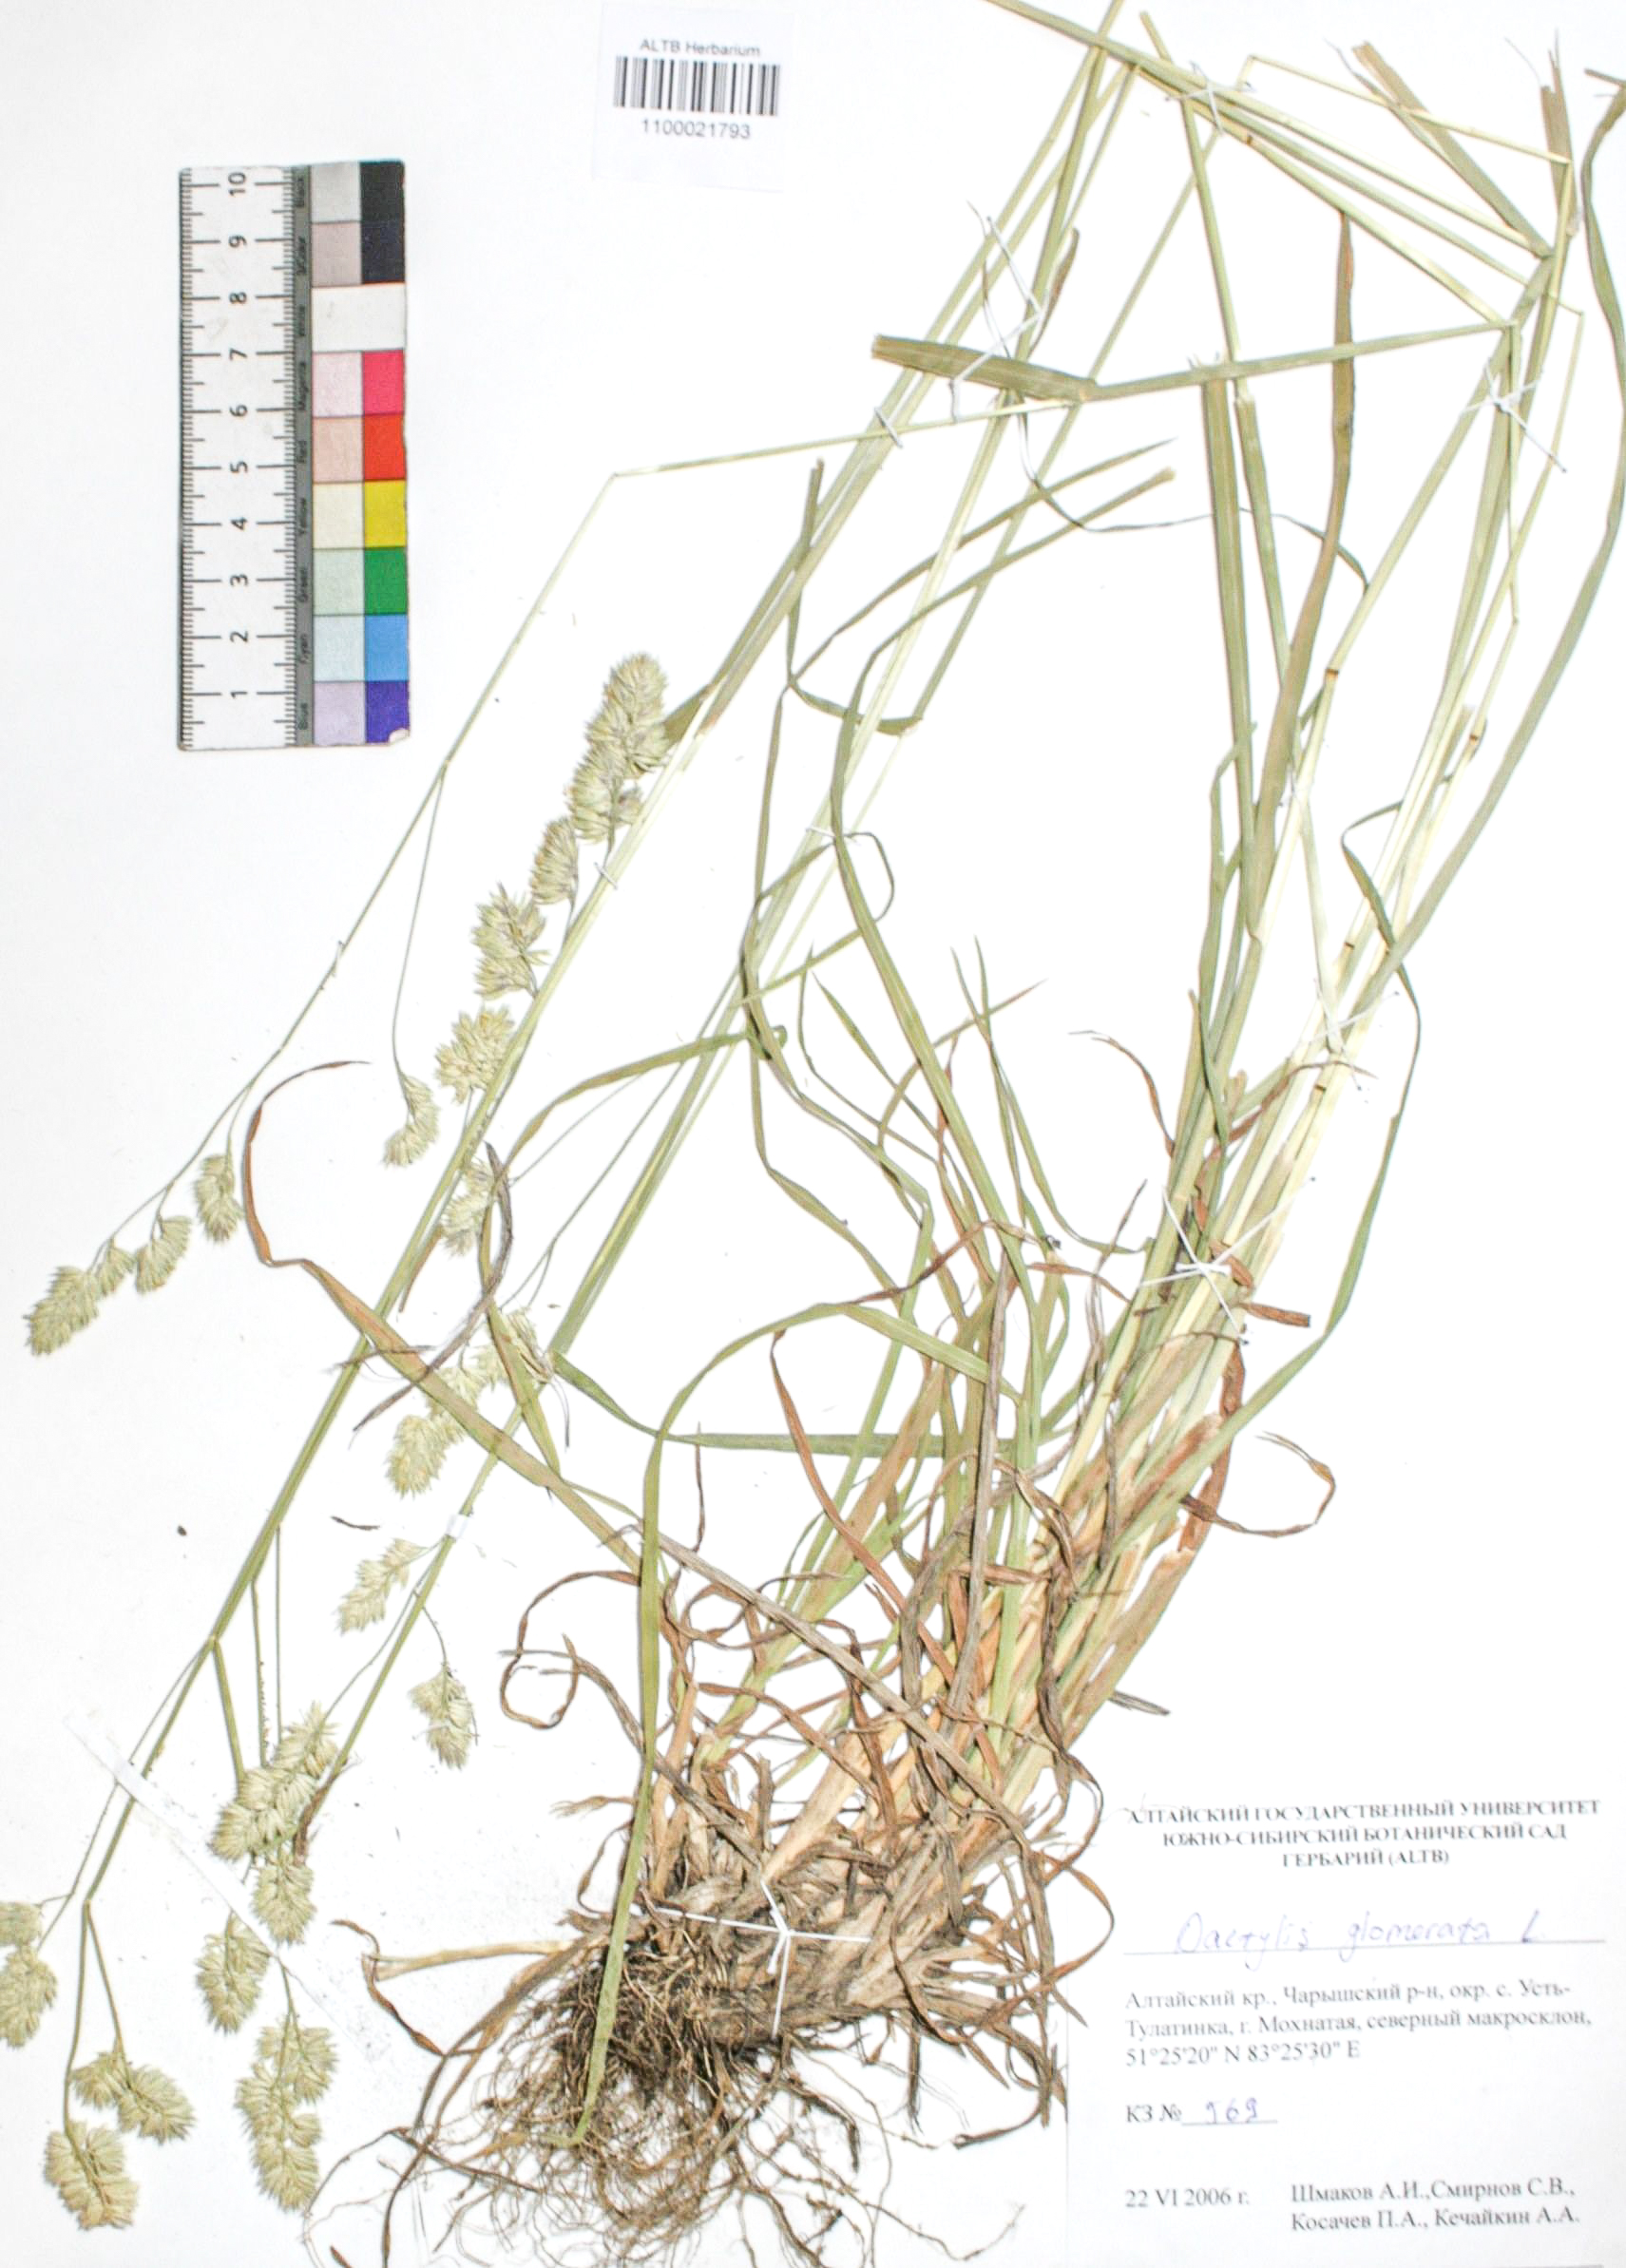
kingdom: Plantae
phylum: Tracheophyta
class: Liliopsida
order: Poales
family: Poaceae
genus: Dactylis
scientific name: Dactylis glomerata
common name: Orchardgrass
